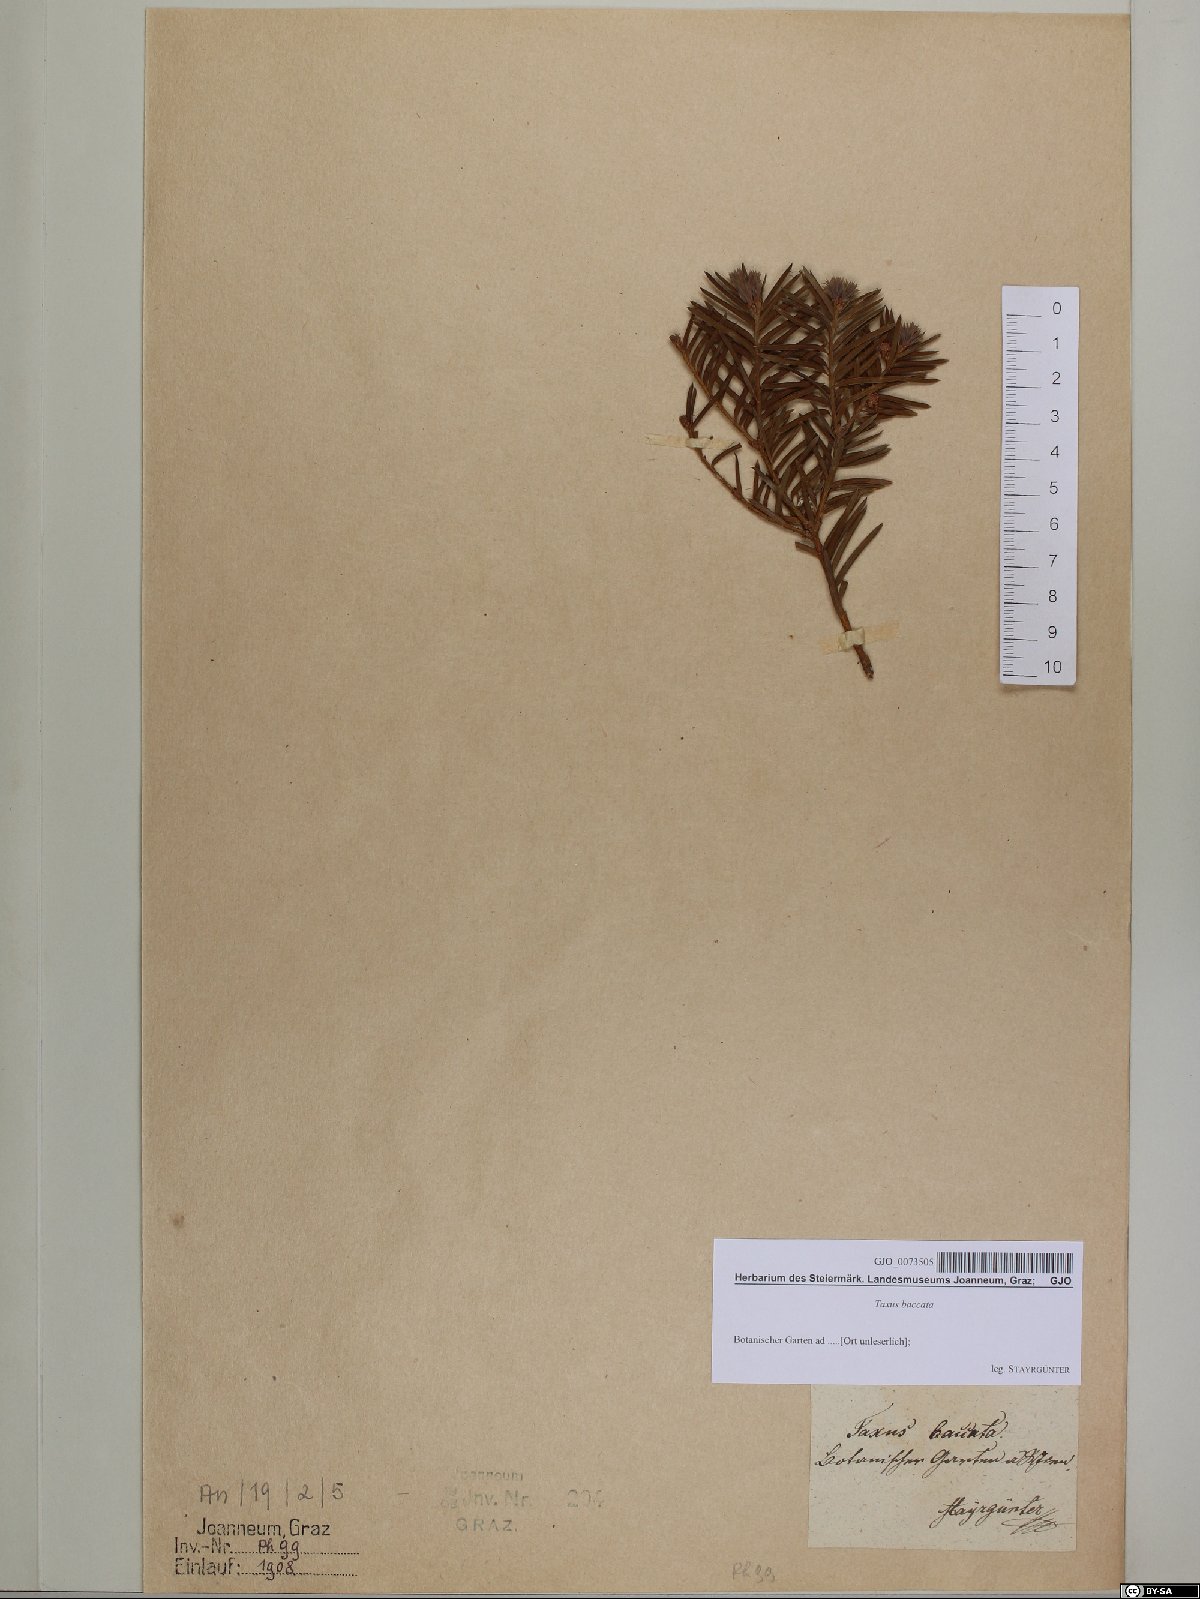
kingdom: Plantae
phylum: Tracheophyta
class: Pinopsida
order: Pinales
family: Taxaceae
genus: Taxus
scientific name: Taxus baccata
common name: Yew
